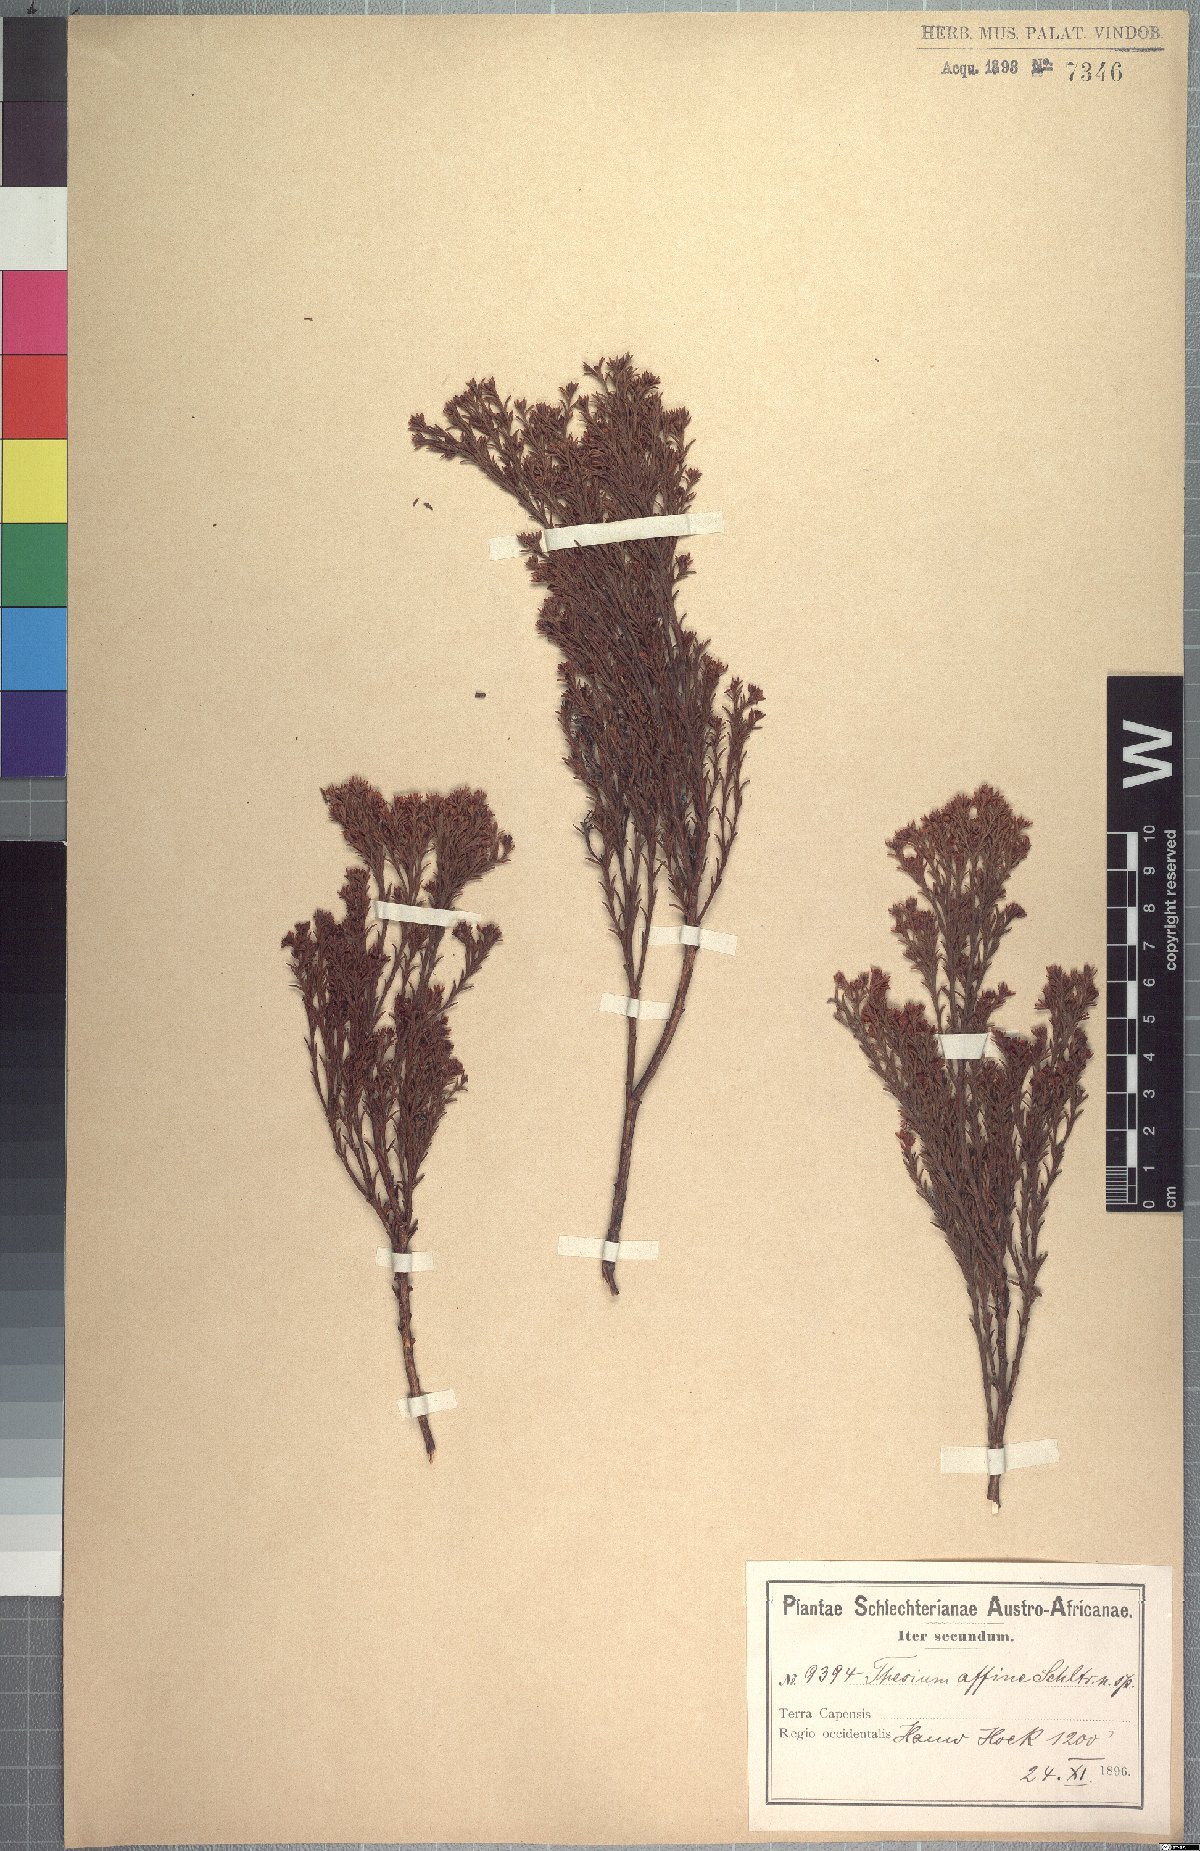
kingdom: Plantae
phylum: Tracheophyta
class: Magnoliopsida
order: Santalales
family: Thesiaceae
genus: Thesium
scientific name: Thesium affine
